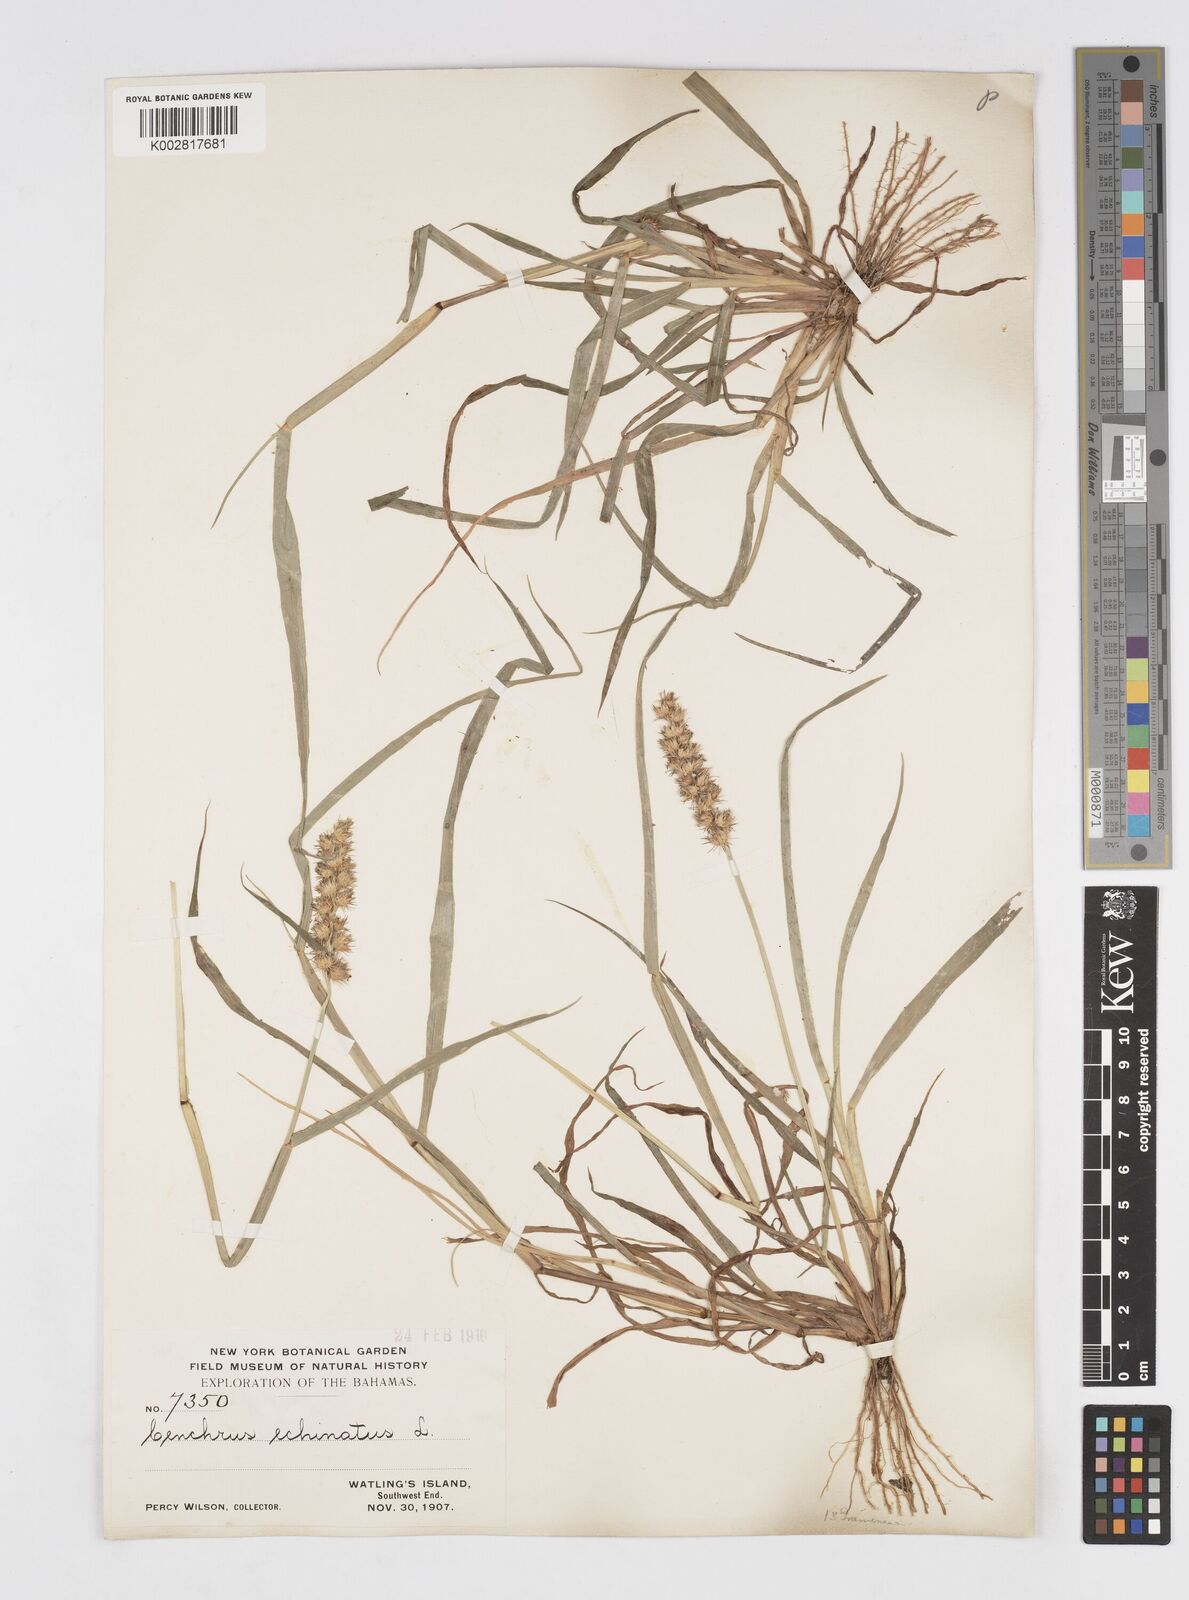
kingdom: Plantae
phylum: Tracheophyta
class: Liliopsida
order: Poales
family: Poaceae
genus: Cenchrus
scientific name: Cenchrus
